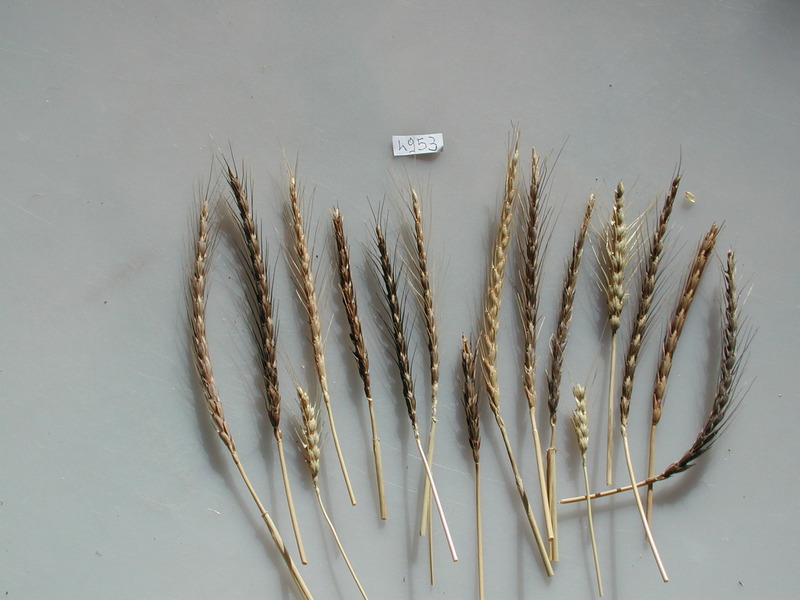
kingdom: Plantae
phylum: Tracheophyta
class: Liliopsida
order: Poales
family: Poaceae
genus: Triticum
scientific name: Triticum aestivum
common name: Wheat
